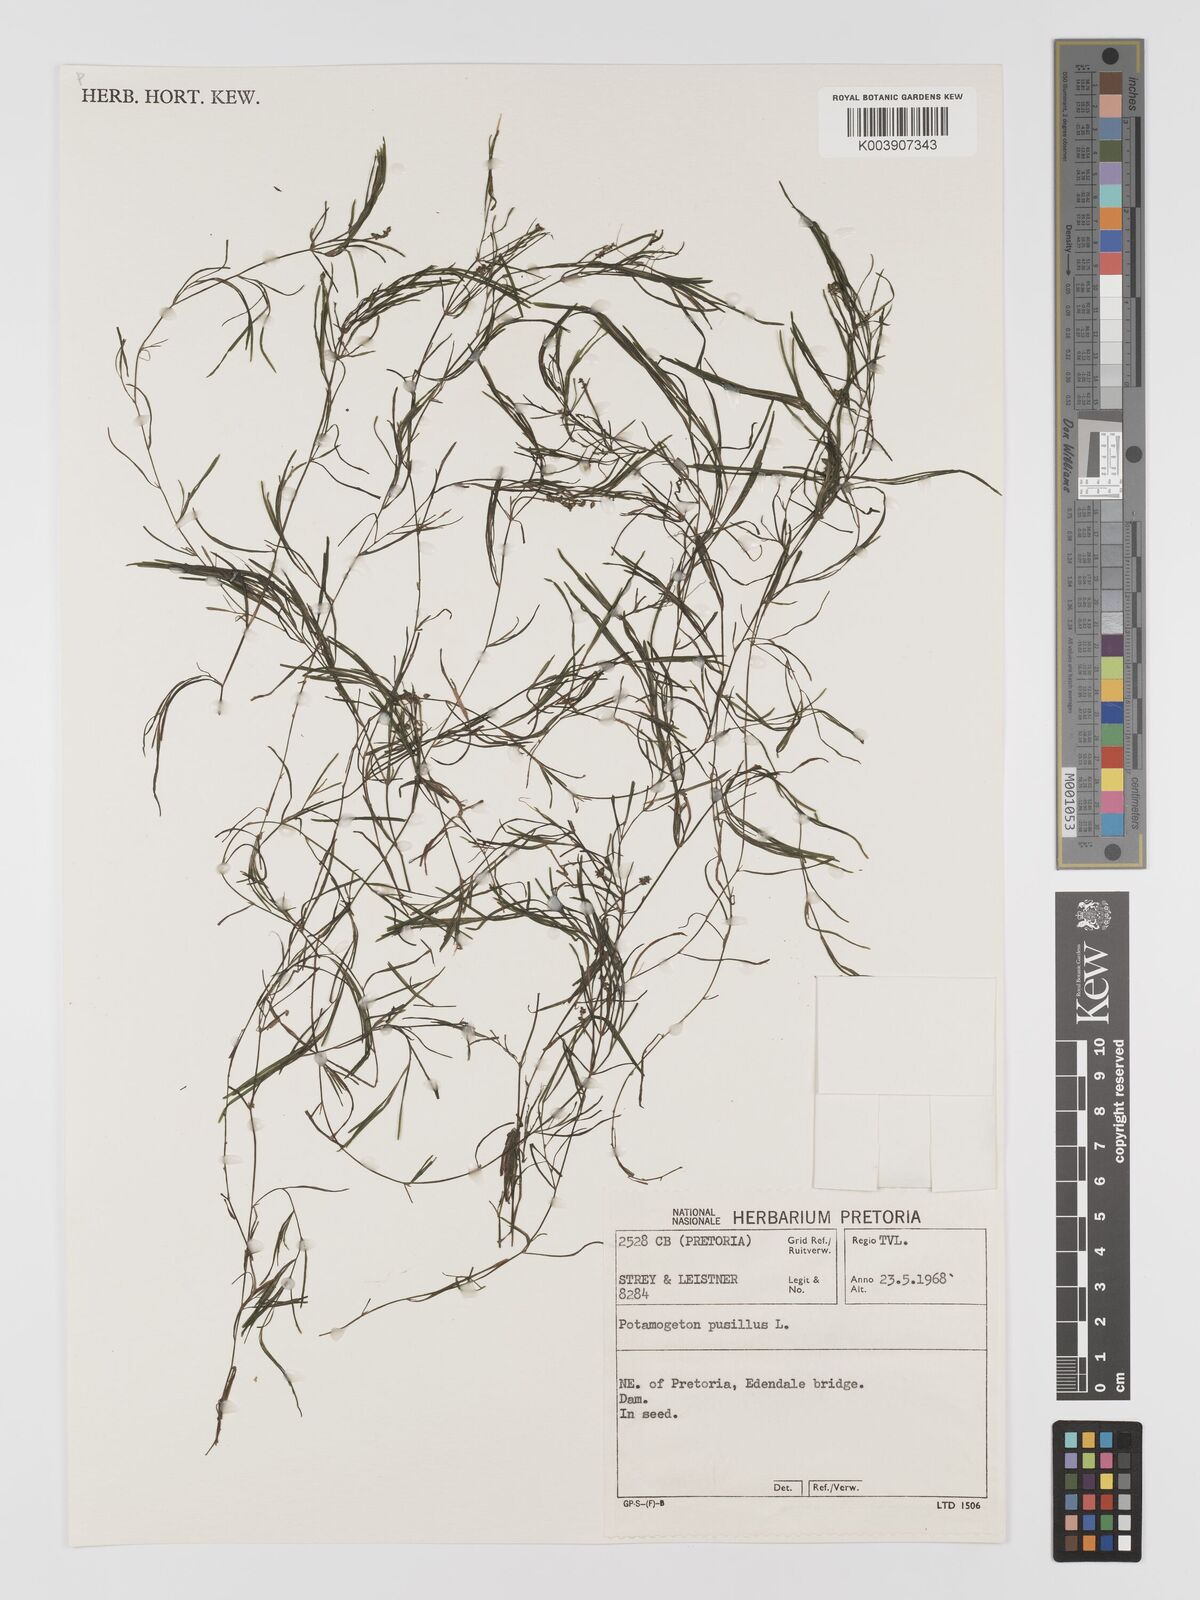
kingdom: Plantae
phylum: Tracheophyta
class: Liliopsida
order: Alismatales
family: Potamogetonaceae
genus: Potamogeton
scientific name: Potamogeton pusillus
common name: Lesser pondweed
